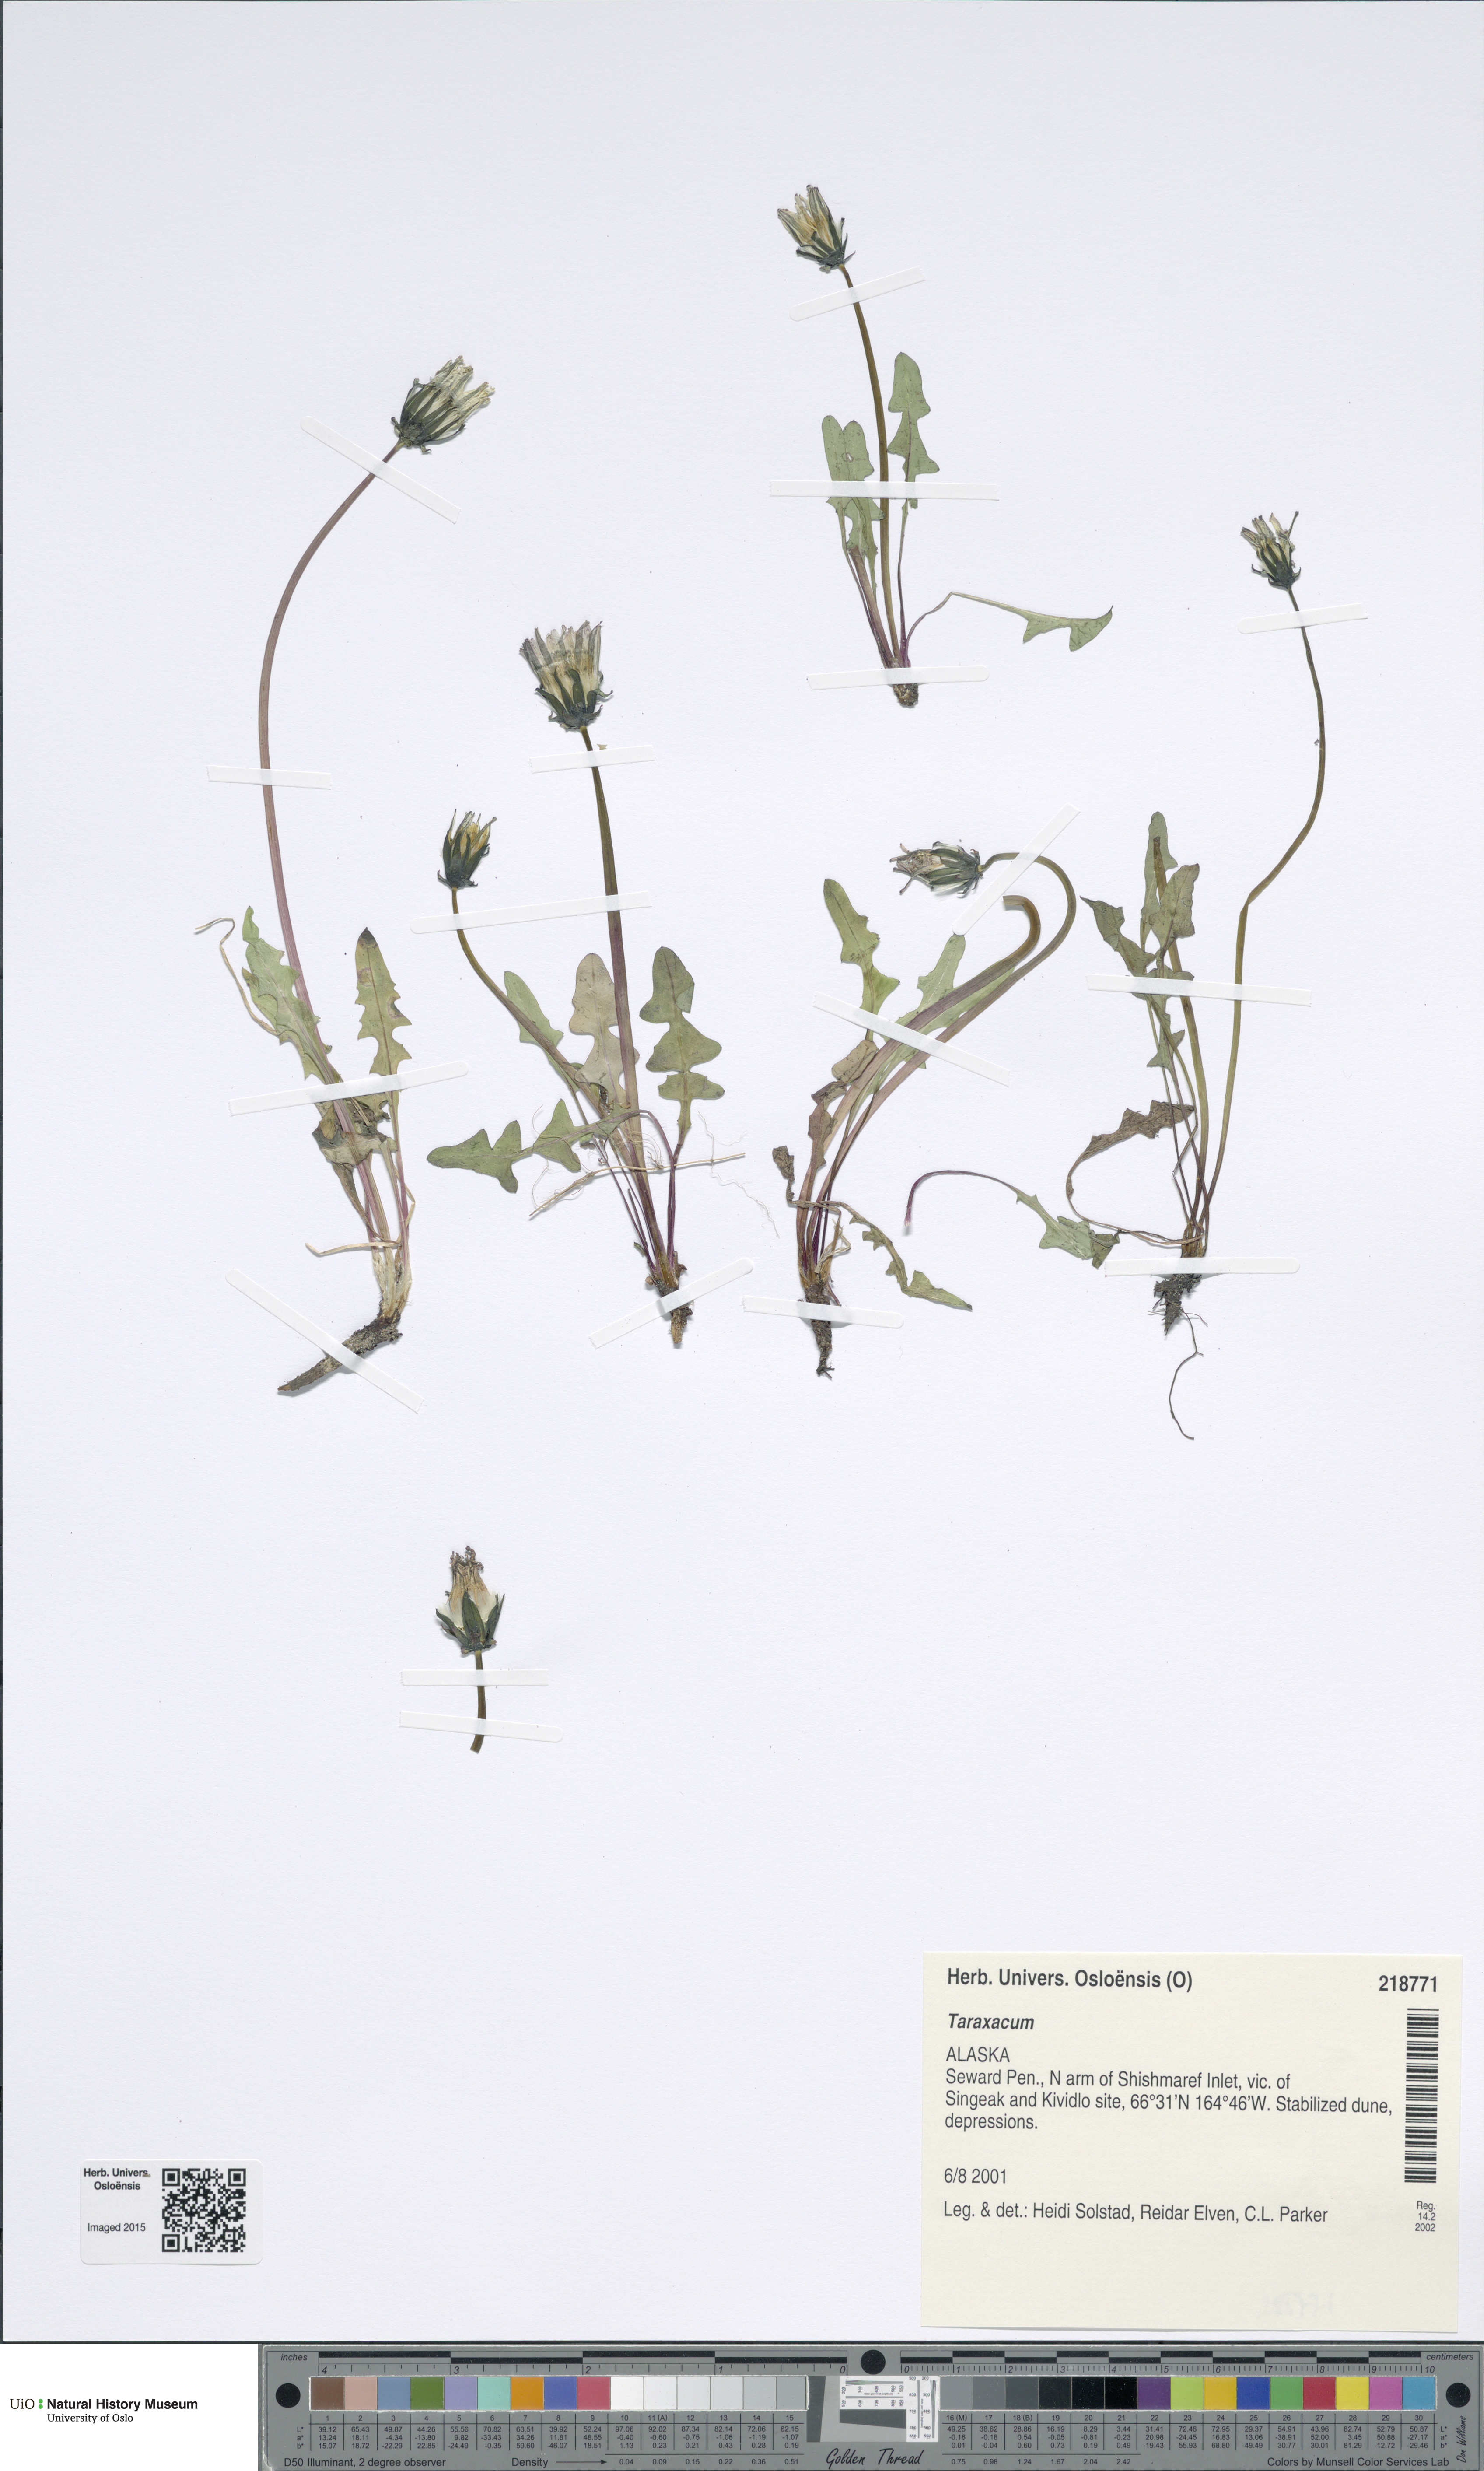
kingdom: Plantae
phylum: Tracheophyta
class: Magnoliopsida
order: Asterales
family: Asteraceae
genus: Taraxacum
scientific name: Taraxacum
